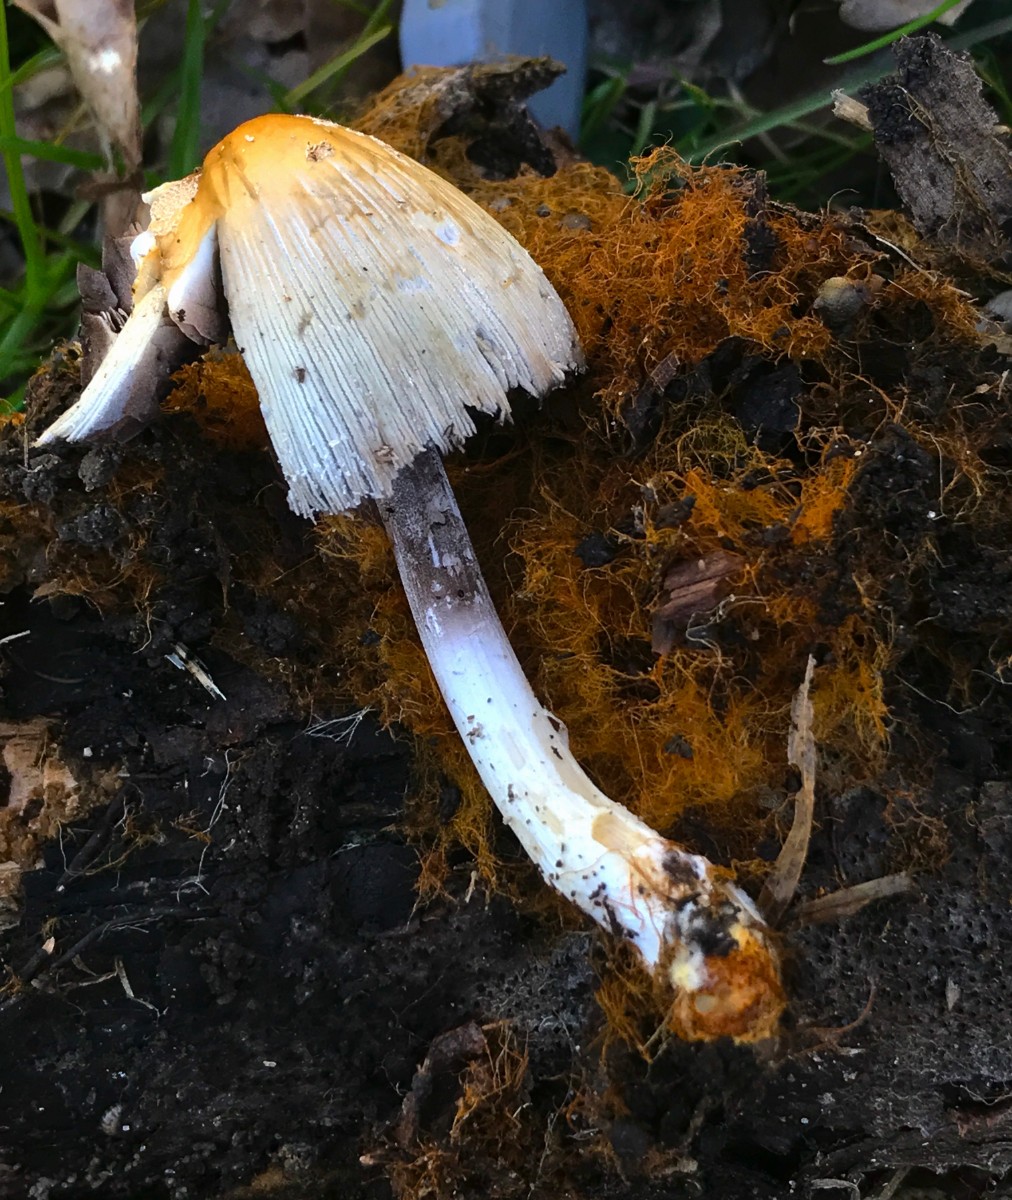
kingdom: Fungi
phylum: Basidiomycota
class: Agaricomycetes
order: Agaricales
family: Psathyrellaceae
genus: Coprinellus
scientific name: Coprinellus
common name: blækhat
